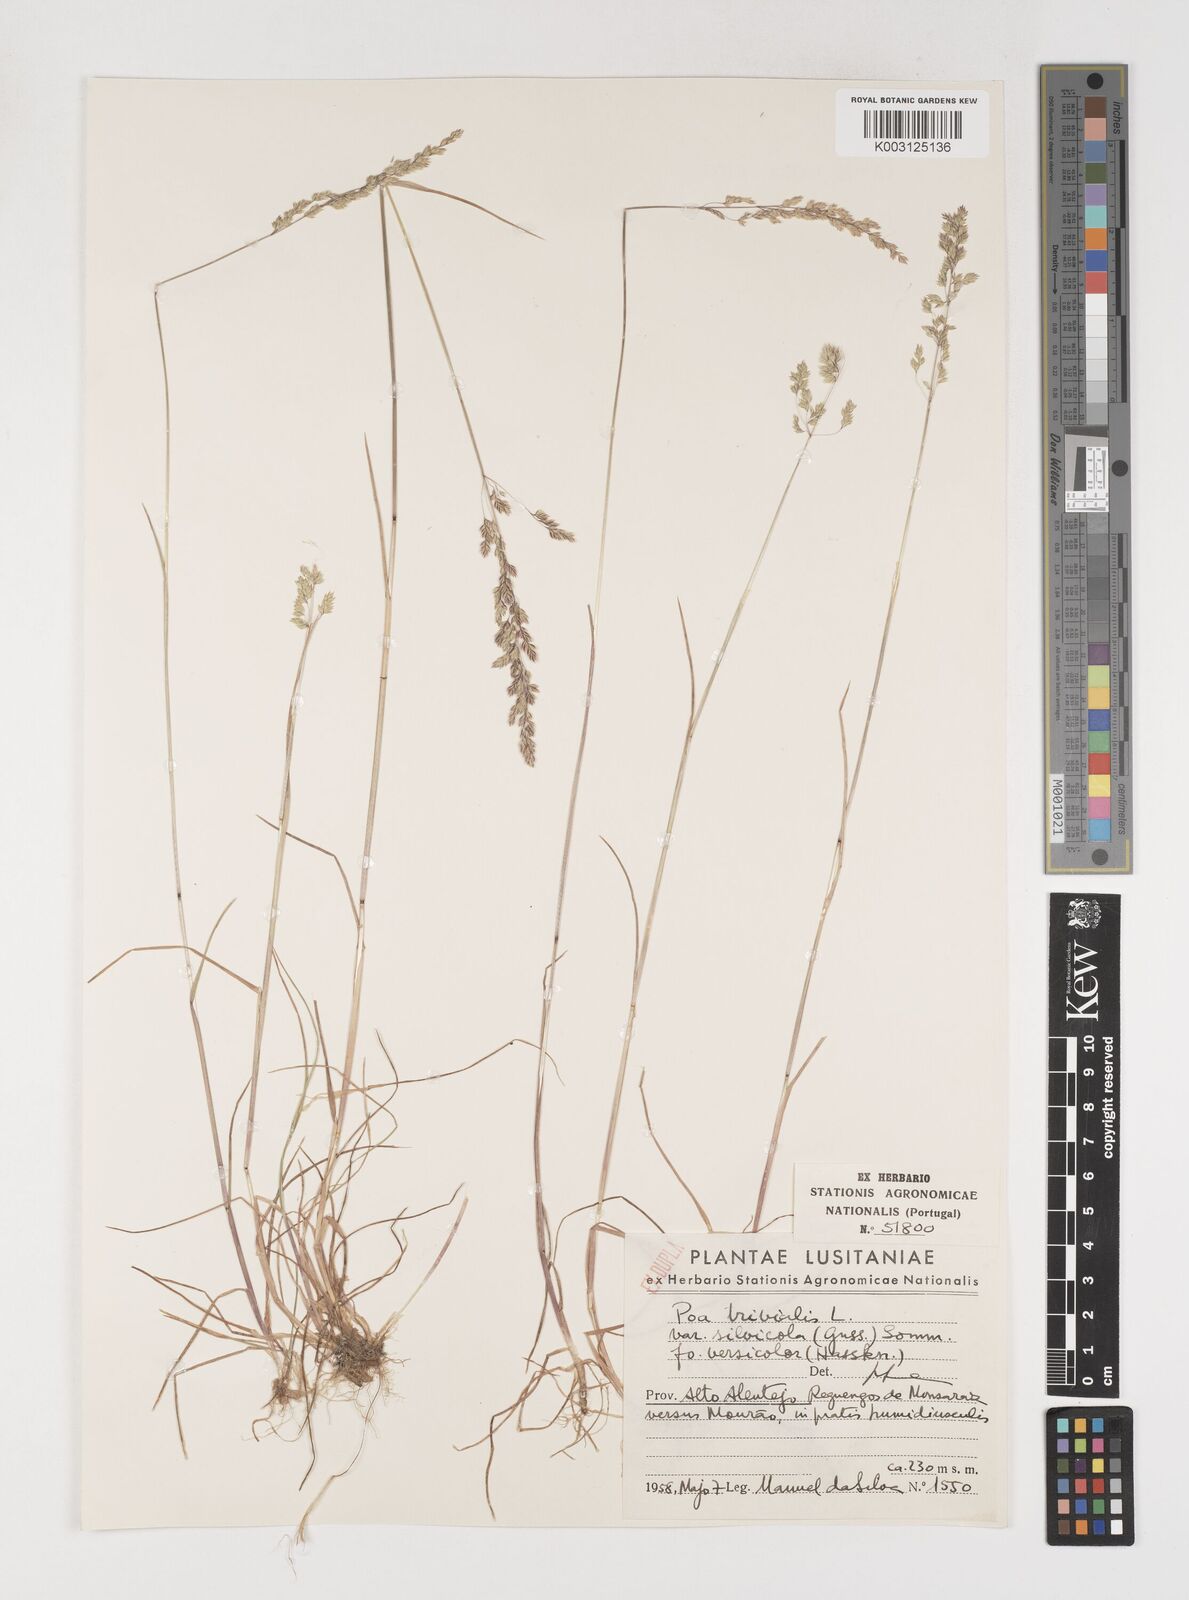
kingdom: Plantae
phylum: Tracheophyta
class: Liliopsida
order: Poales
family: Poaceae
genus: Poa
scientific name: Poa trivialis
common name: Rough bluegrass
